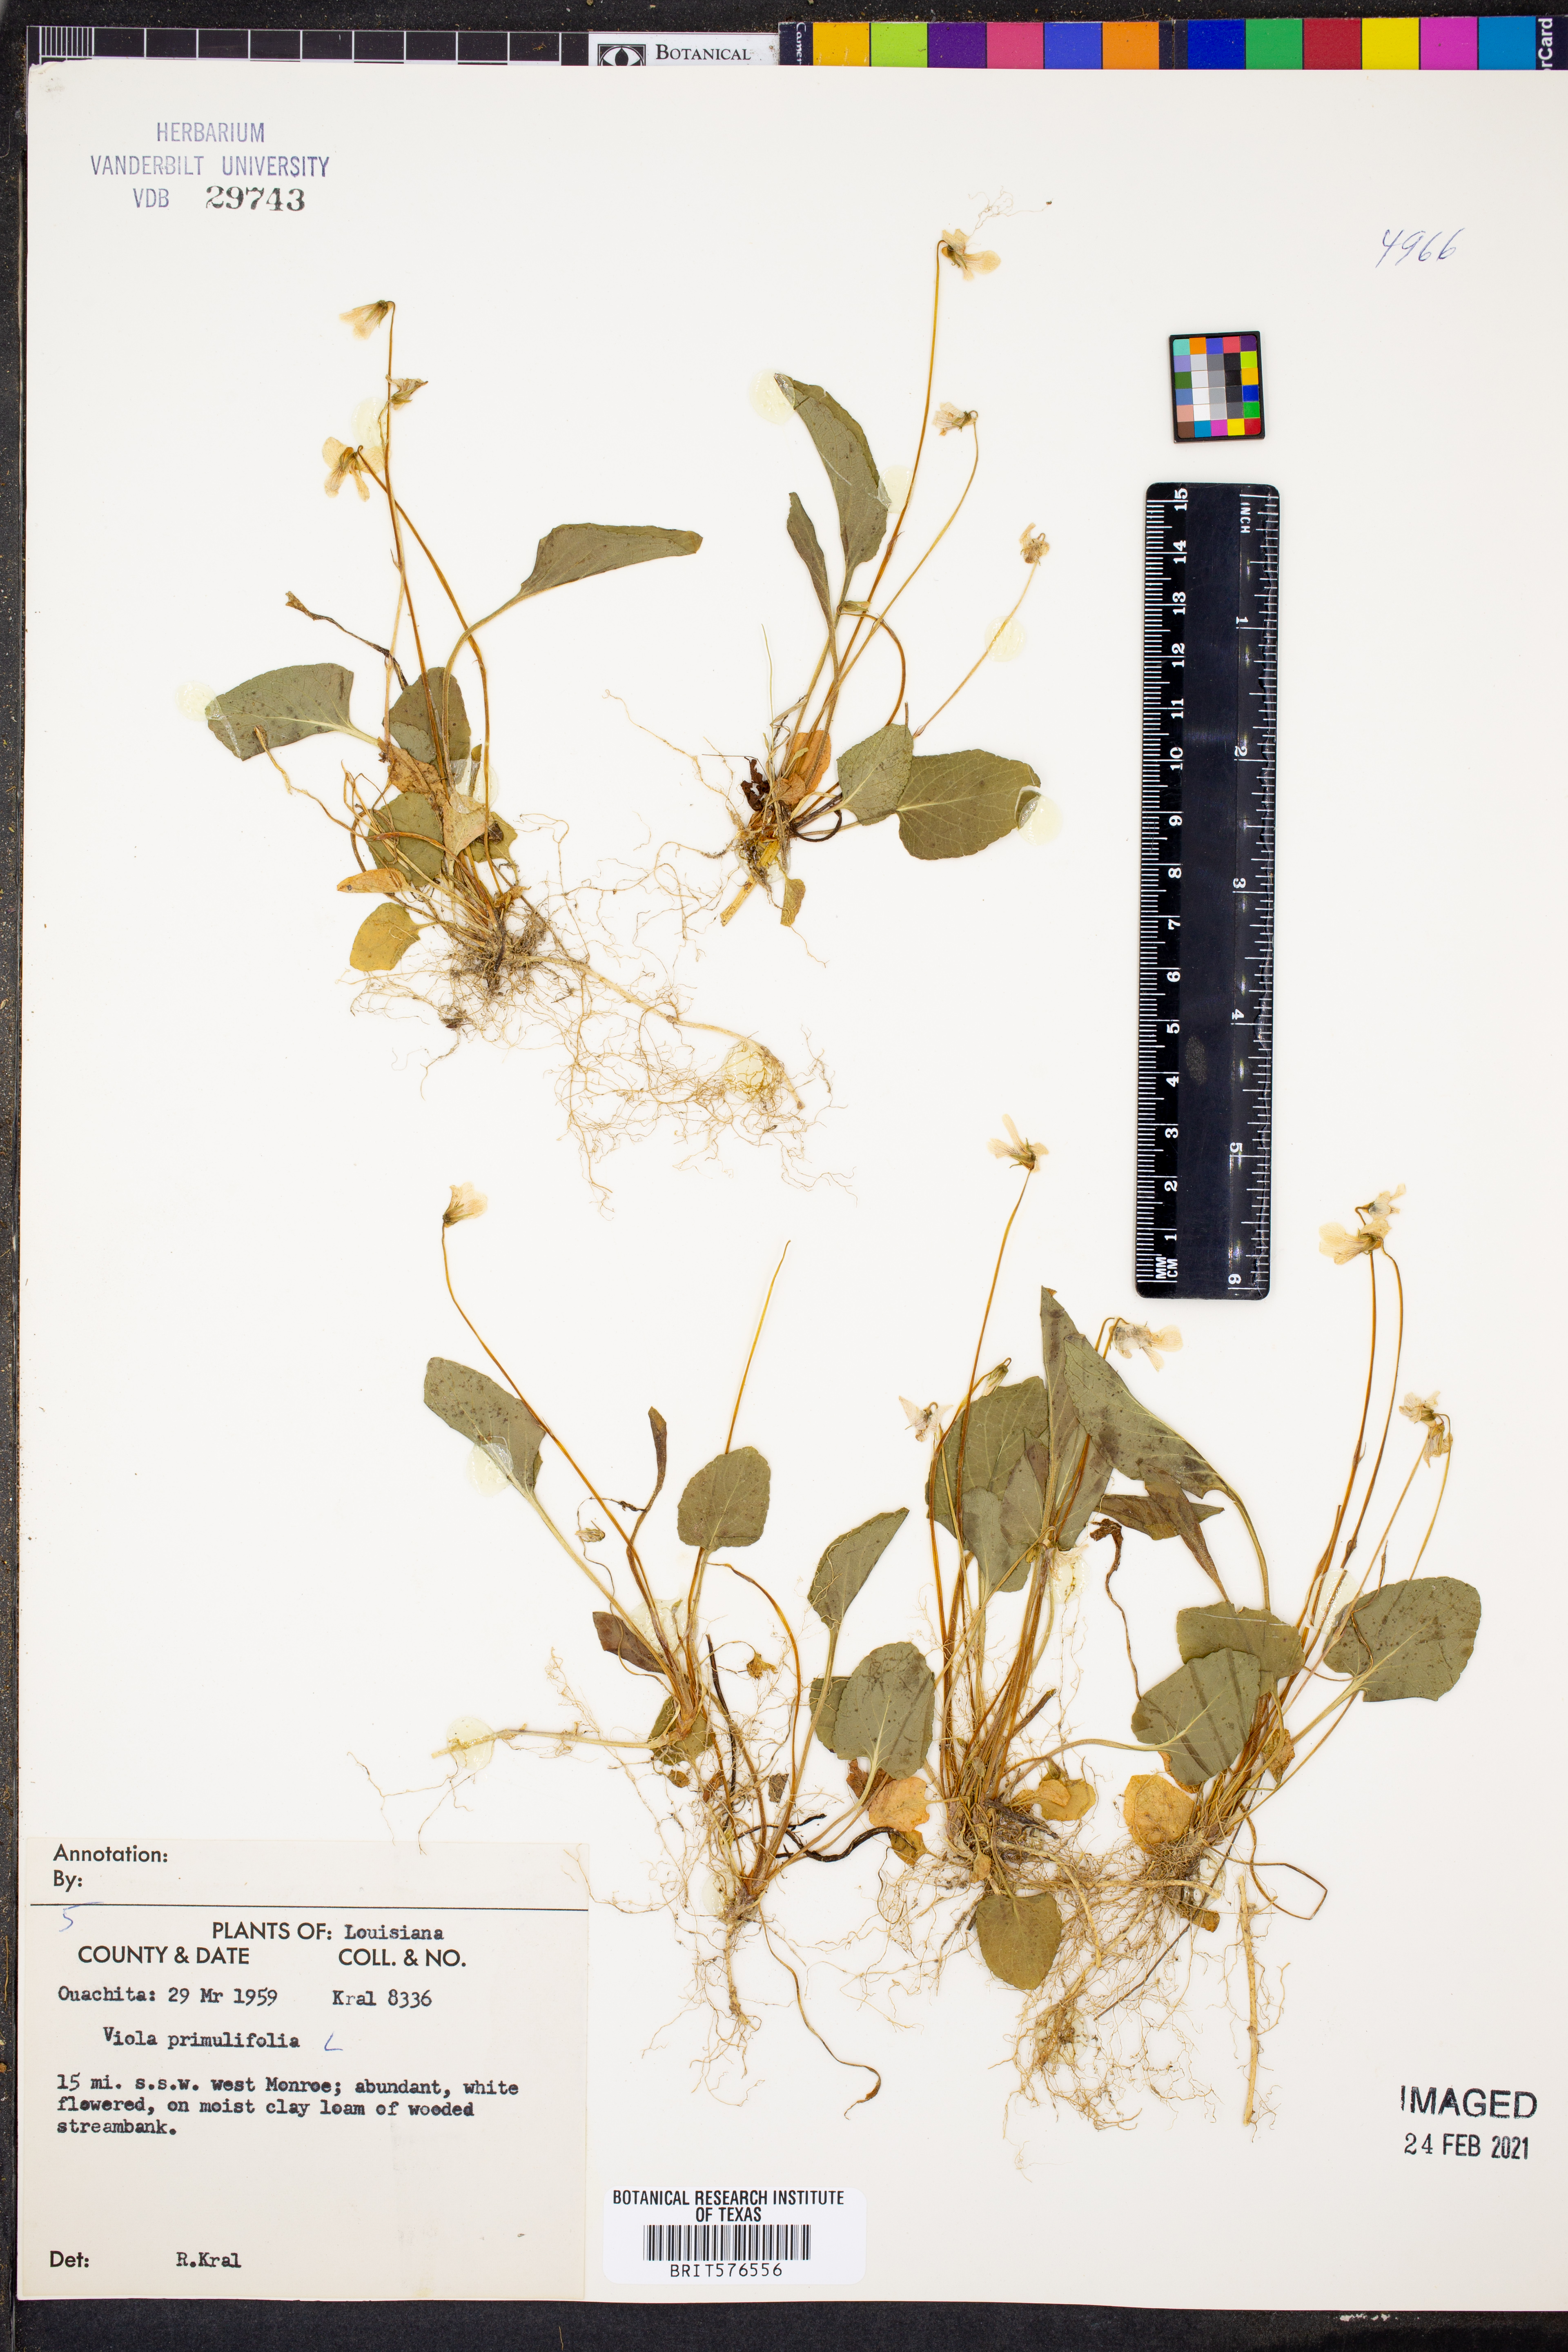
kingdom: Plantae
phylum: Tracheophyta
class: Magnoliopsida
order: Malpighiales
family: Violaceae
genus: Viola
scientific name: Viola primulifolia
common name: Primrose-leaf violet
